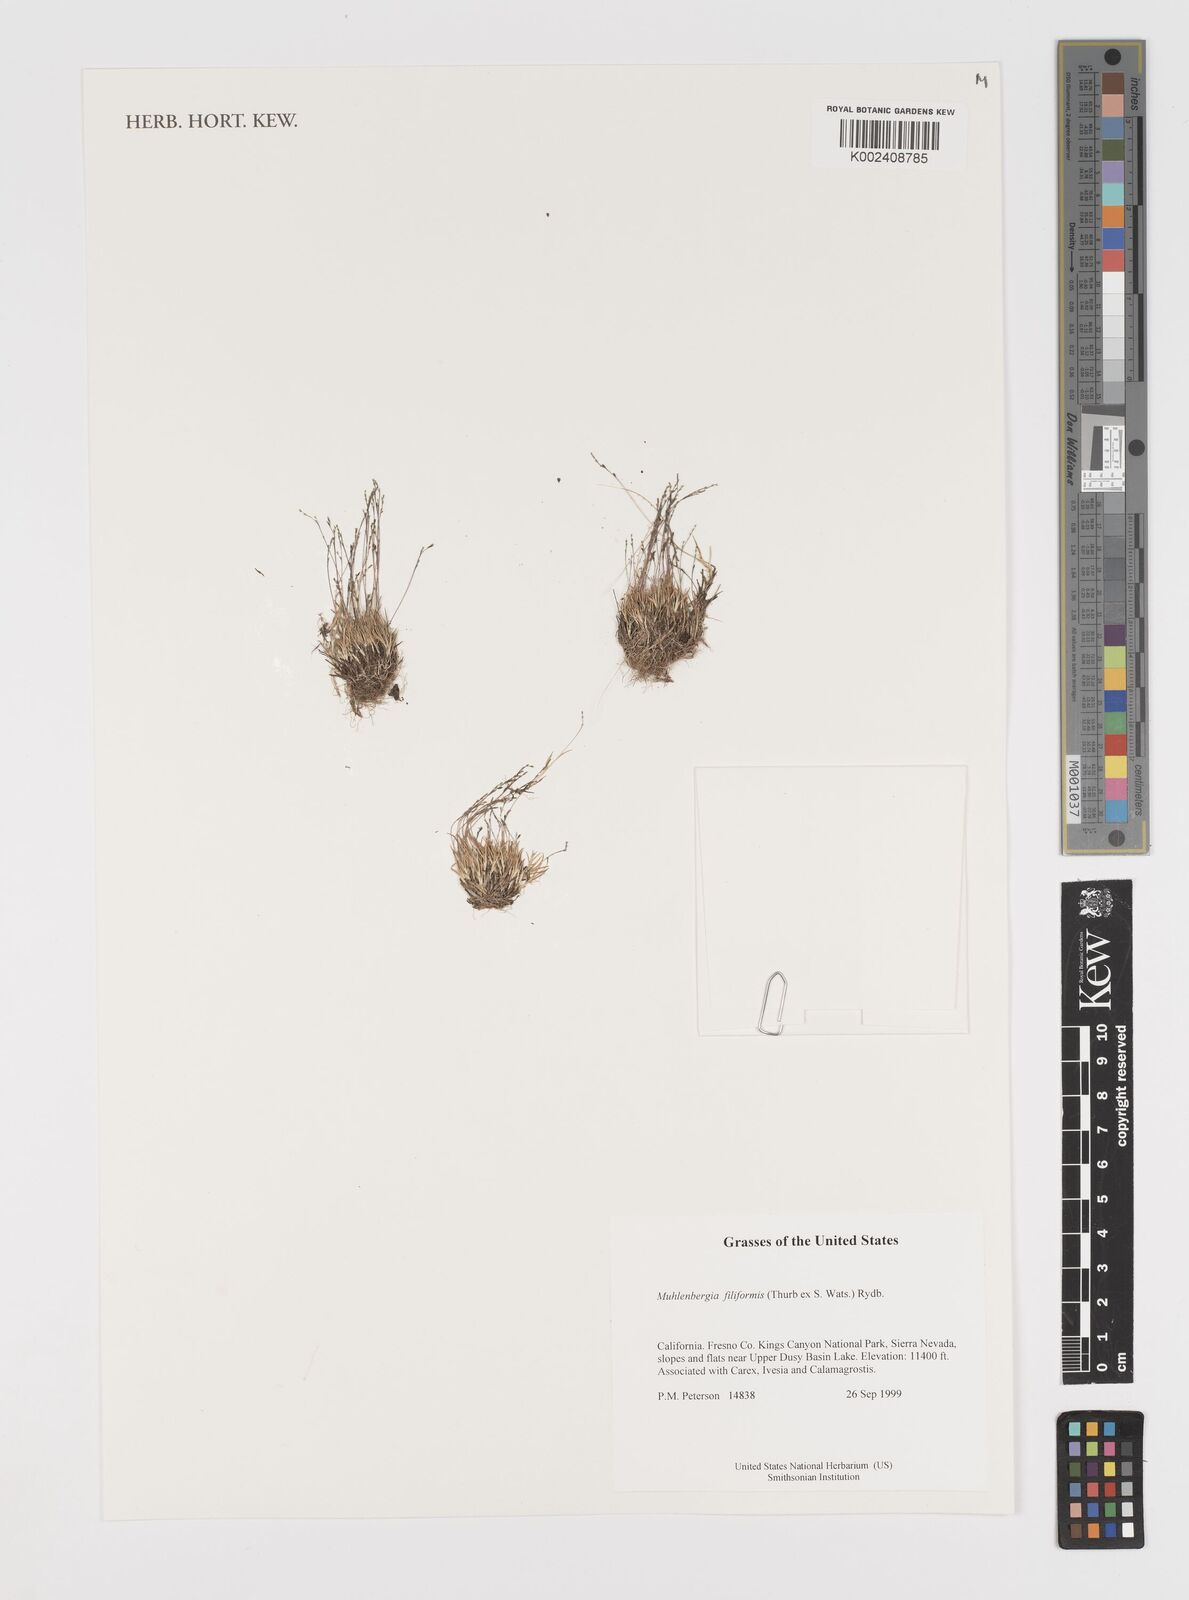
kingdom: Plantae
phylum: Tracheophyta
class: Liliopsida
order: Poales
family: Poaceae
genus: Leptochloa
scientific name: Leptochloa mucronata
